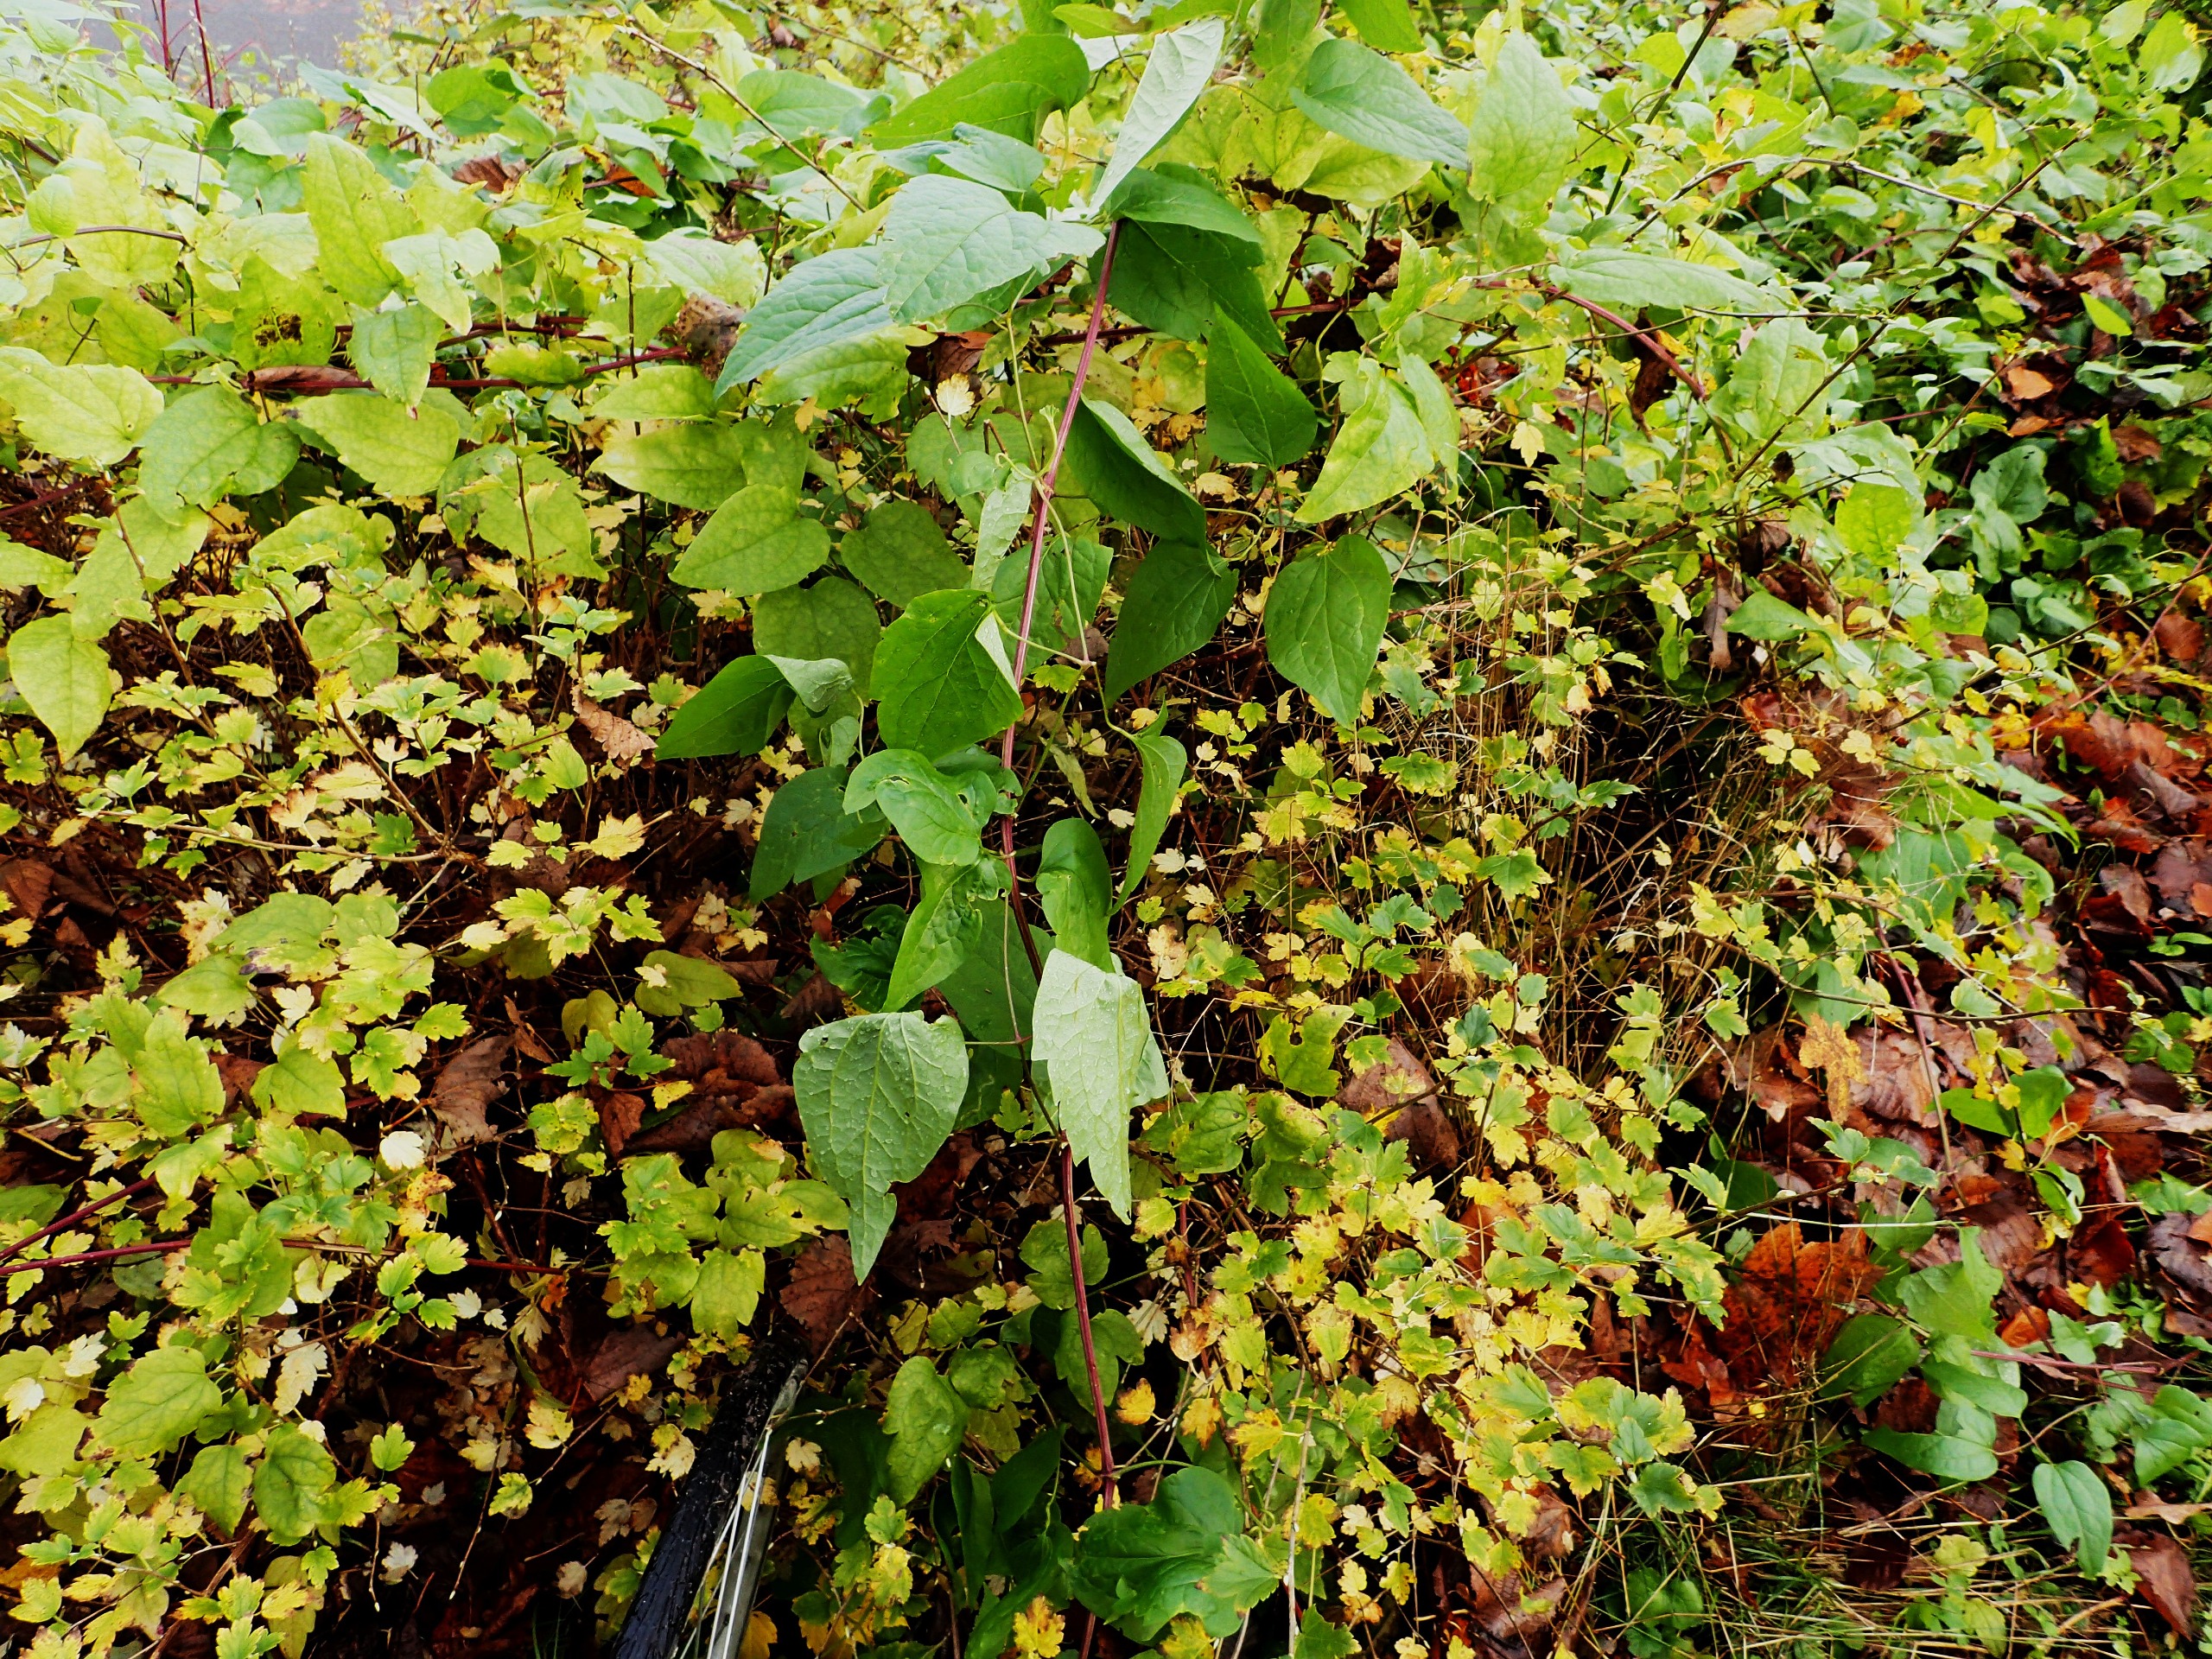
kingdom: Plantae
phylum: Tracheophyta
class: Magnoliopsida
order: Ranunculales
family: Ranunculaceae
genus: Clematis
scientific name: Clematis
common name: Skovrankeslægten
